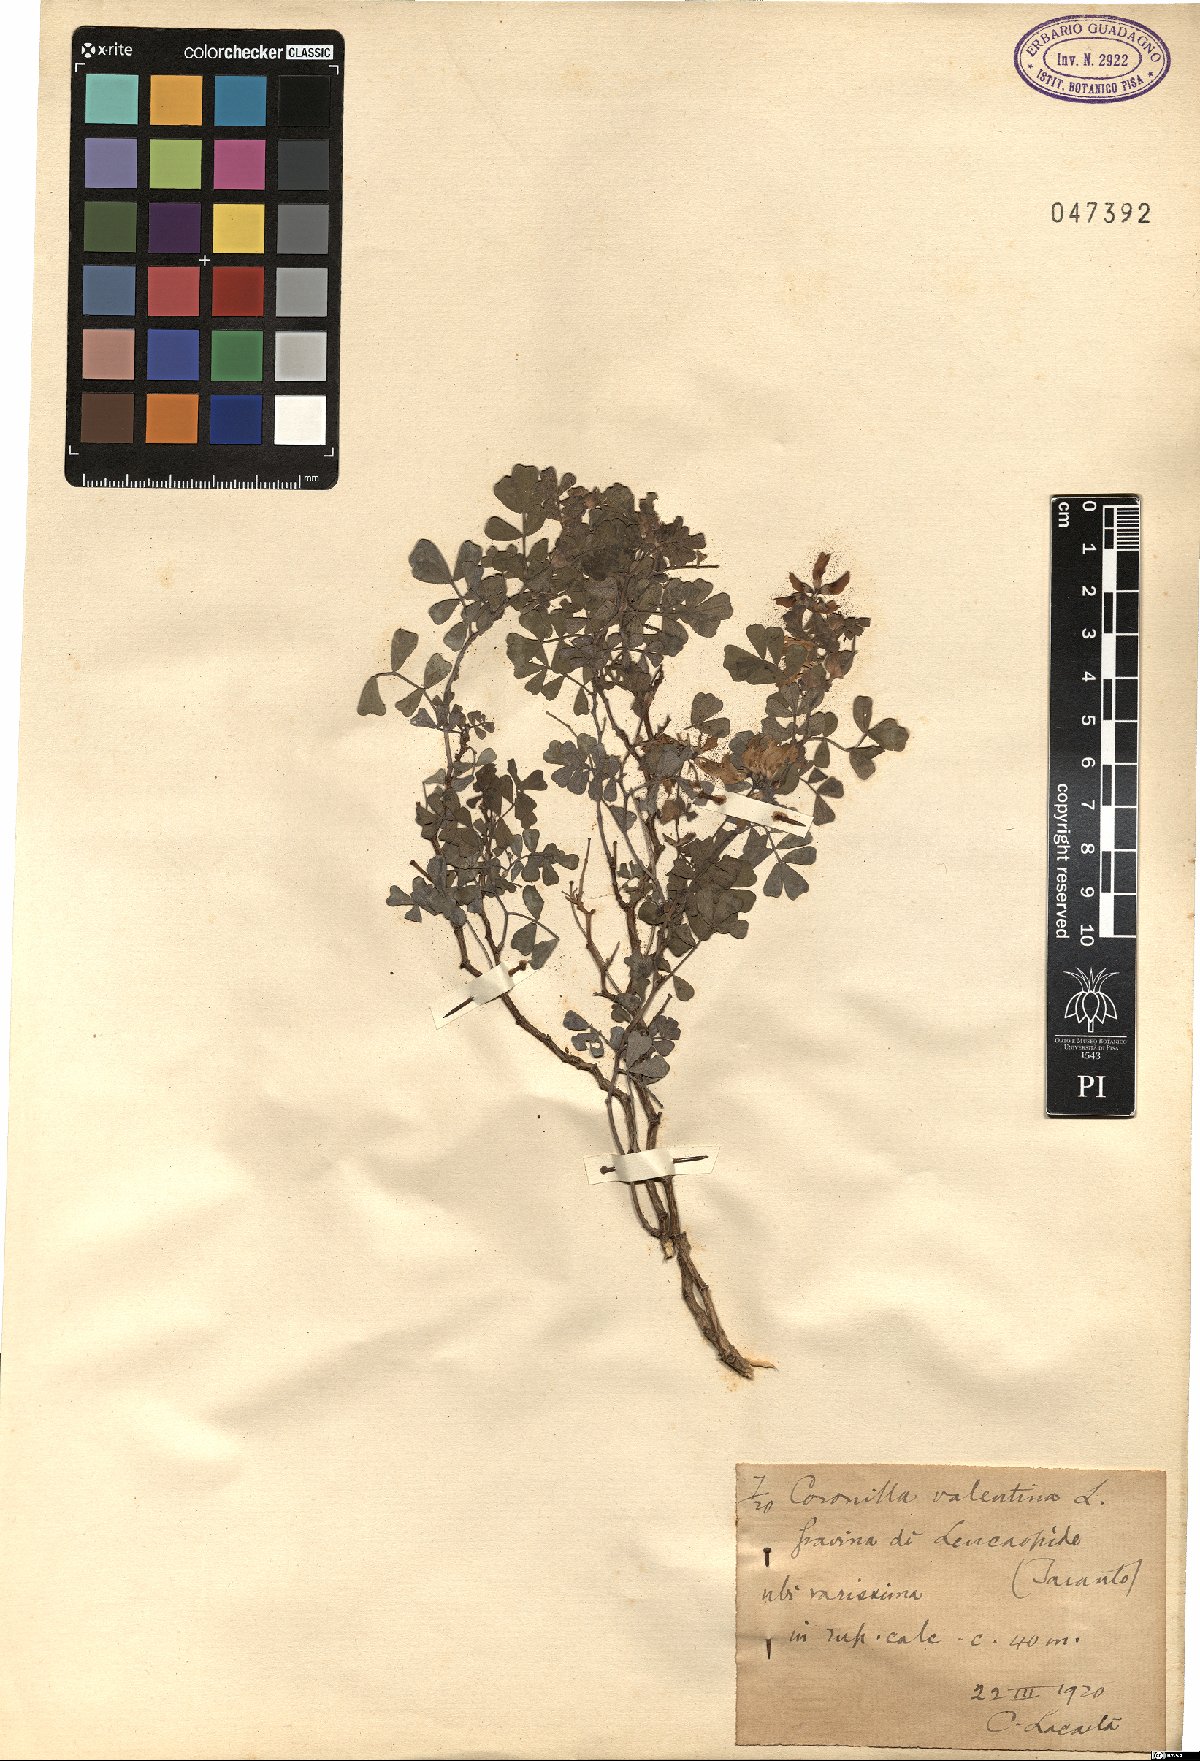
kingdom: Plantae
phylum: Tracheophyta
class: Magnoliopsida
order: Fabales
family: Fabaceae
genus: Coronilla
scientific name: Coronilla valentina
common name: Shrubby scorpion-vetch
